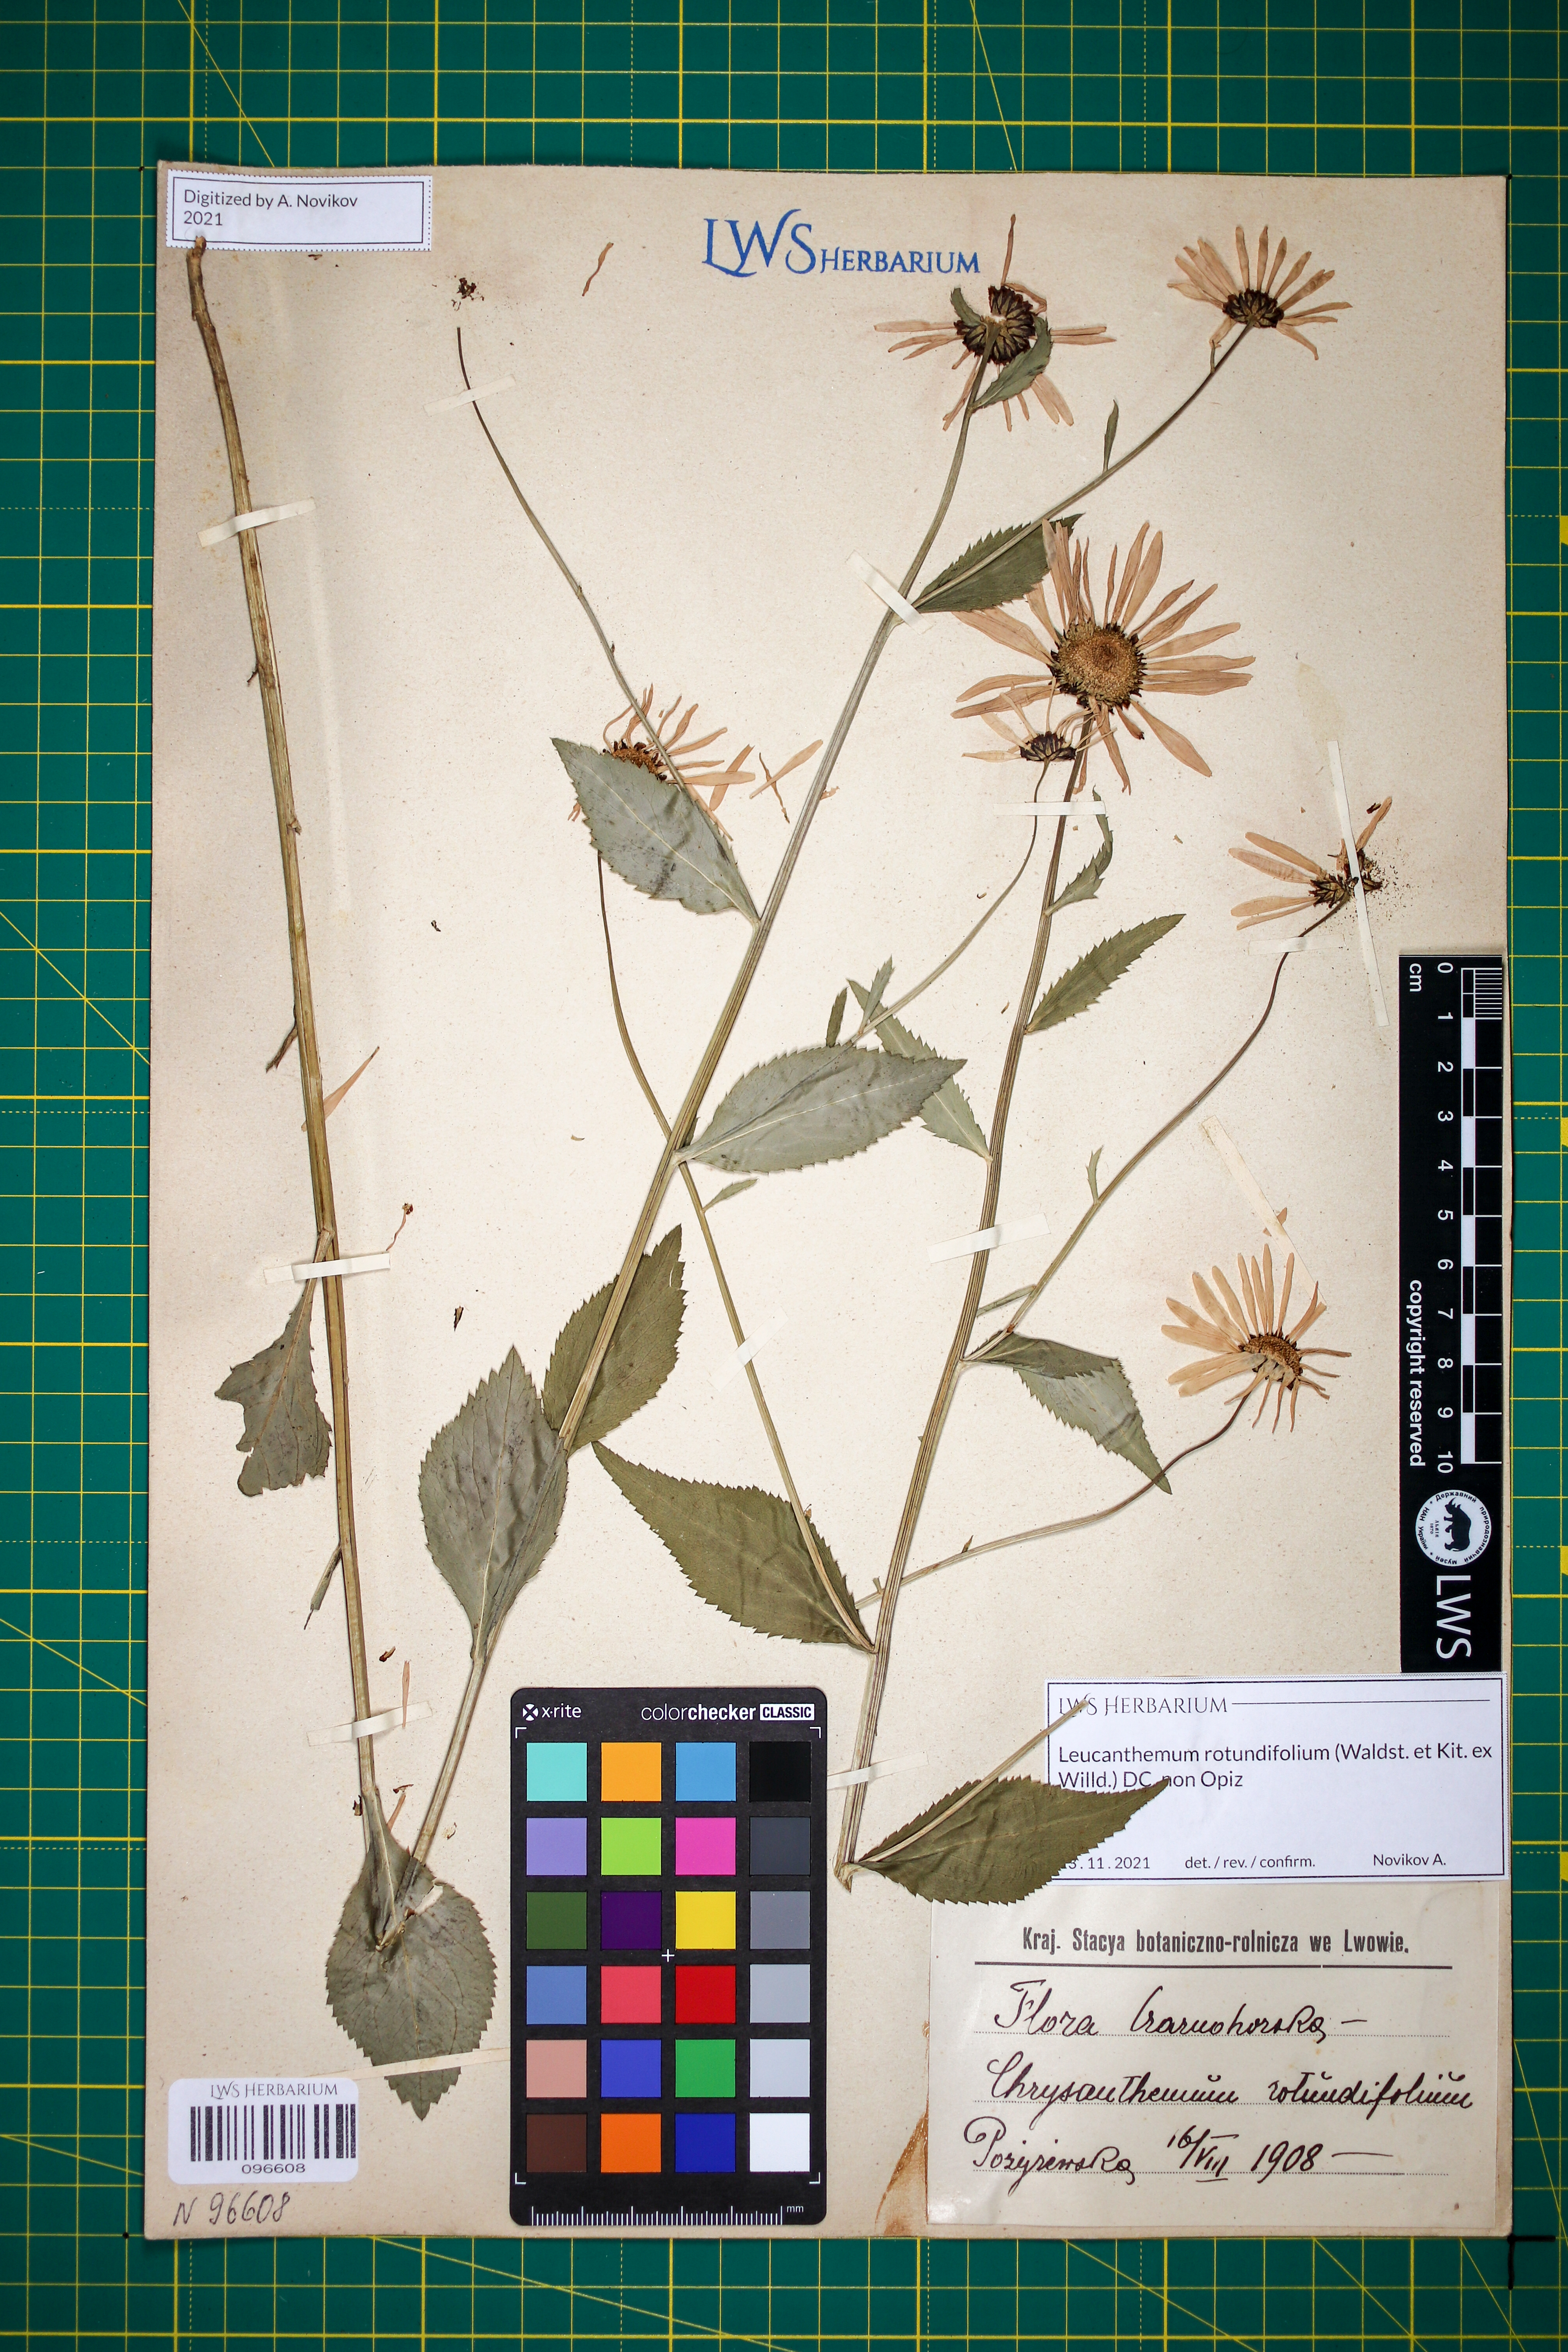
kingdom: Plantae
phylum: Tracheophyta
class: Magnoliopsida
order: Asterales
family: Asteraceae
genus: Leucanthemum
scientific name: Leucanthemum rotundifolium
